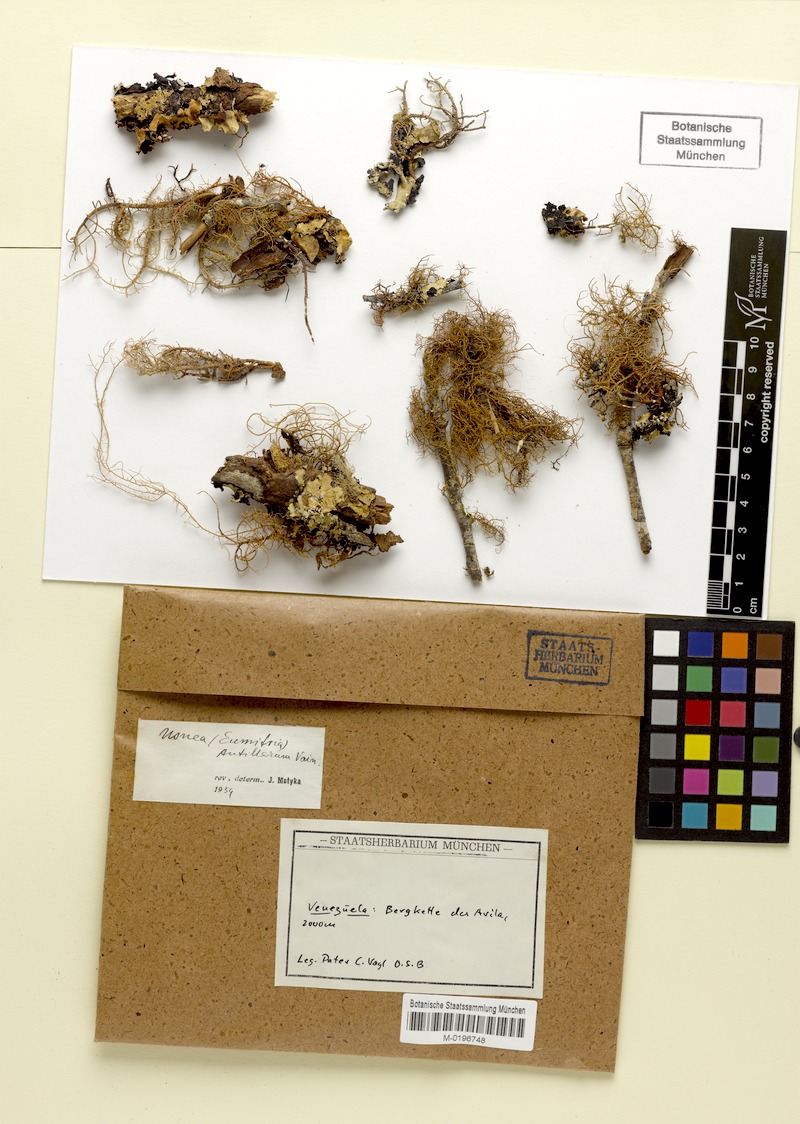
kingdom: Fungi
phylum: Ascomycota
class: Lecanoromycetes
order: Lecanorales
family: Parmeliaceae
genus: Eumitria
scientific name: Eumitria baileyi
